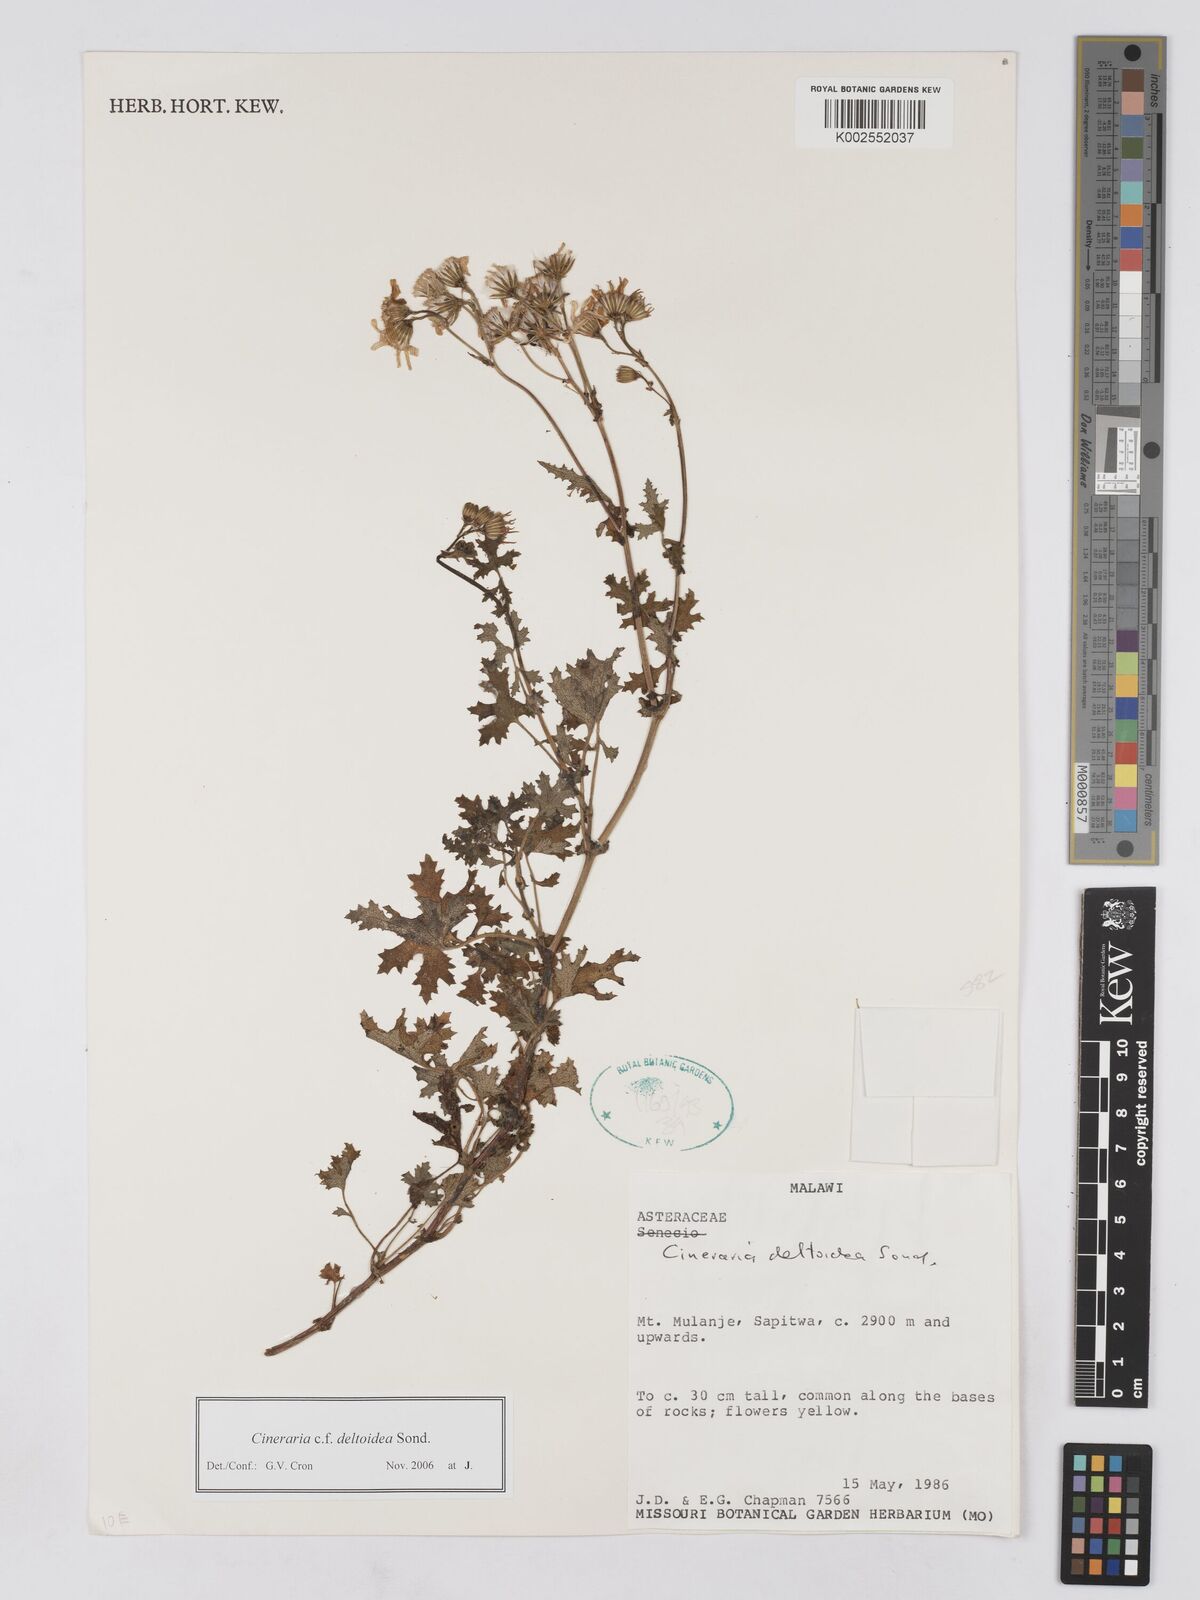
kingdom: Plantae
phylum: Tracheophyta
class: Magnoliopsida
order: Asterales
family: Asteraceae
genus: Cineraria
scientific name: Cineraria deltoidea
